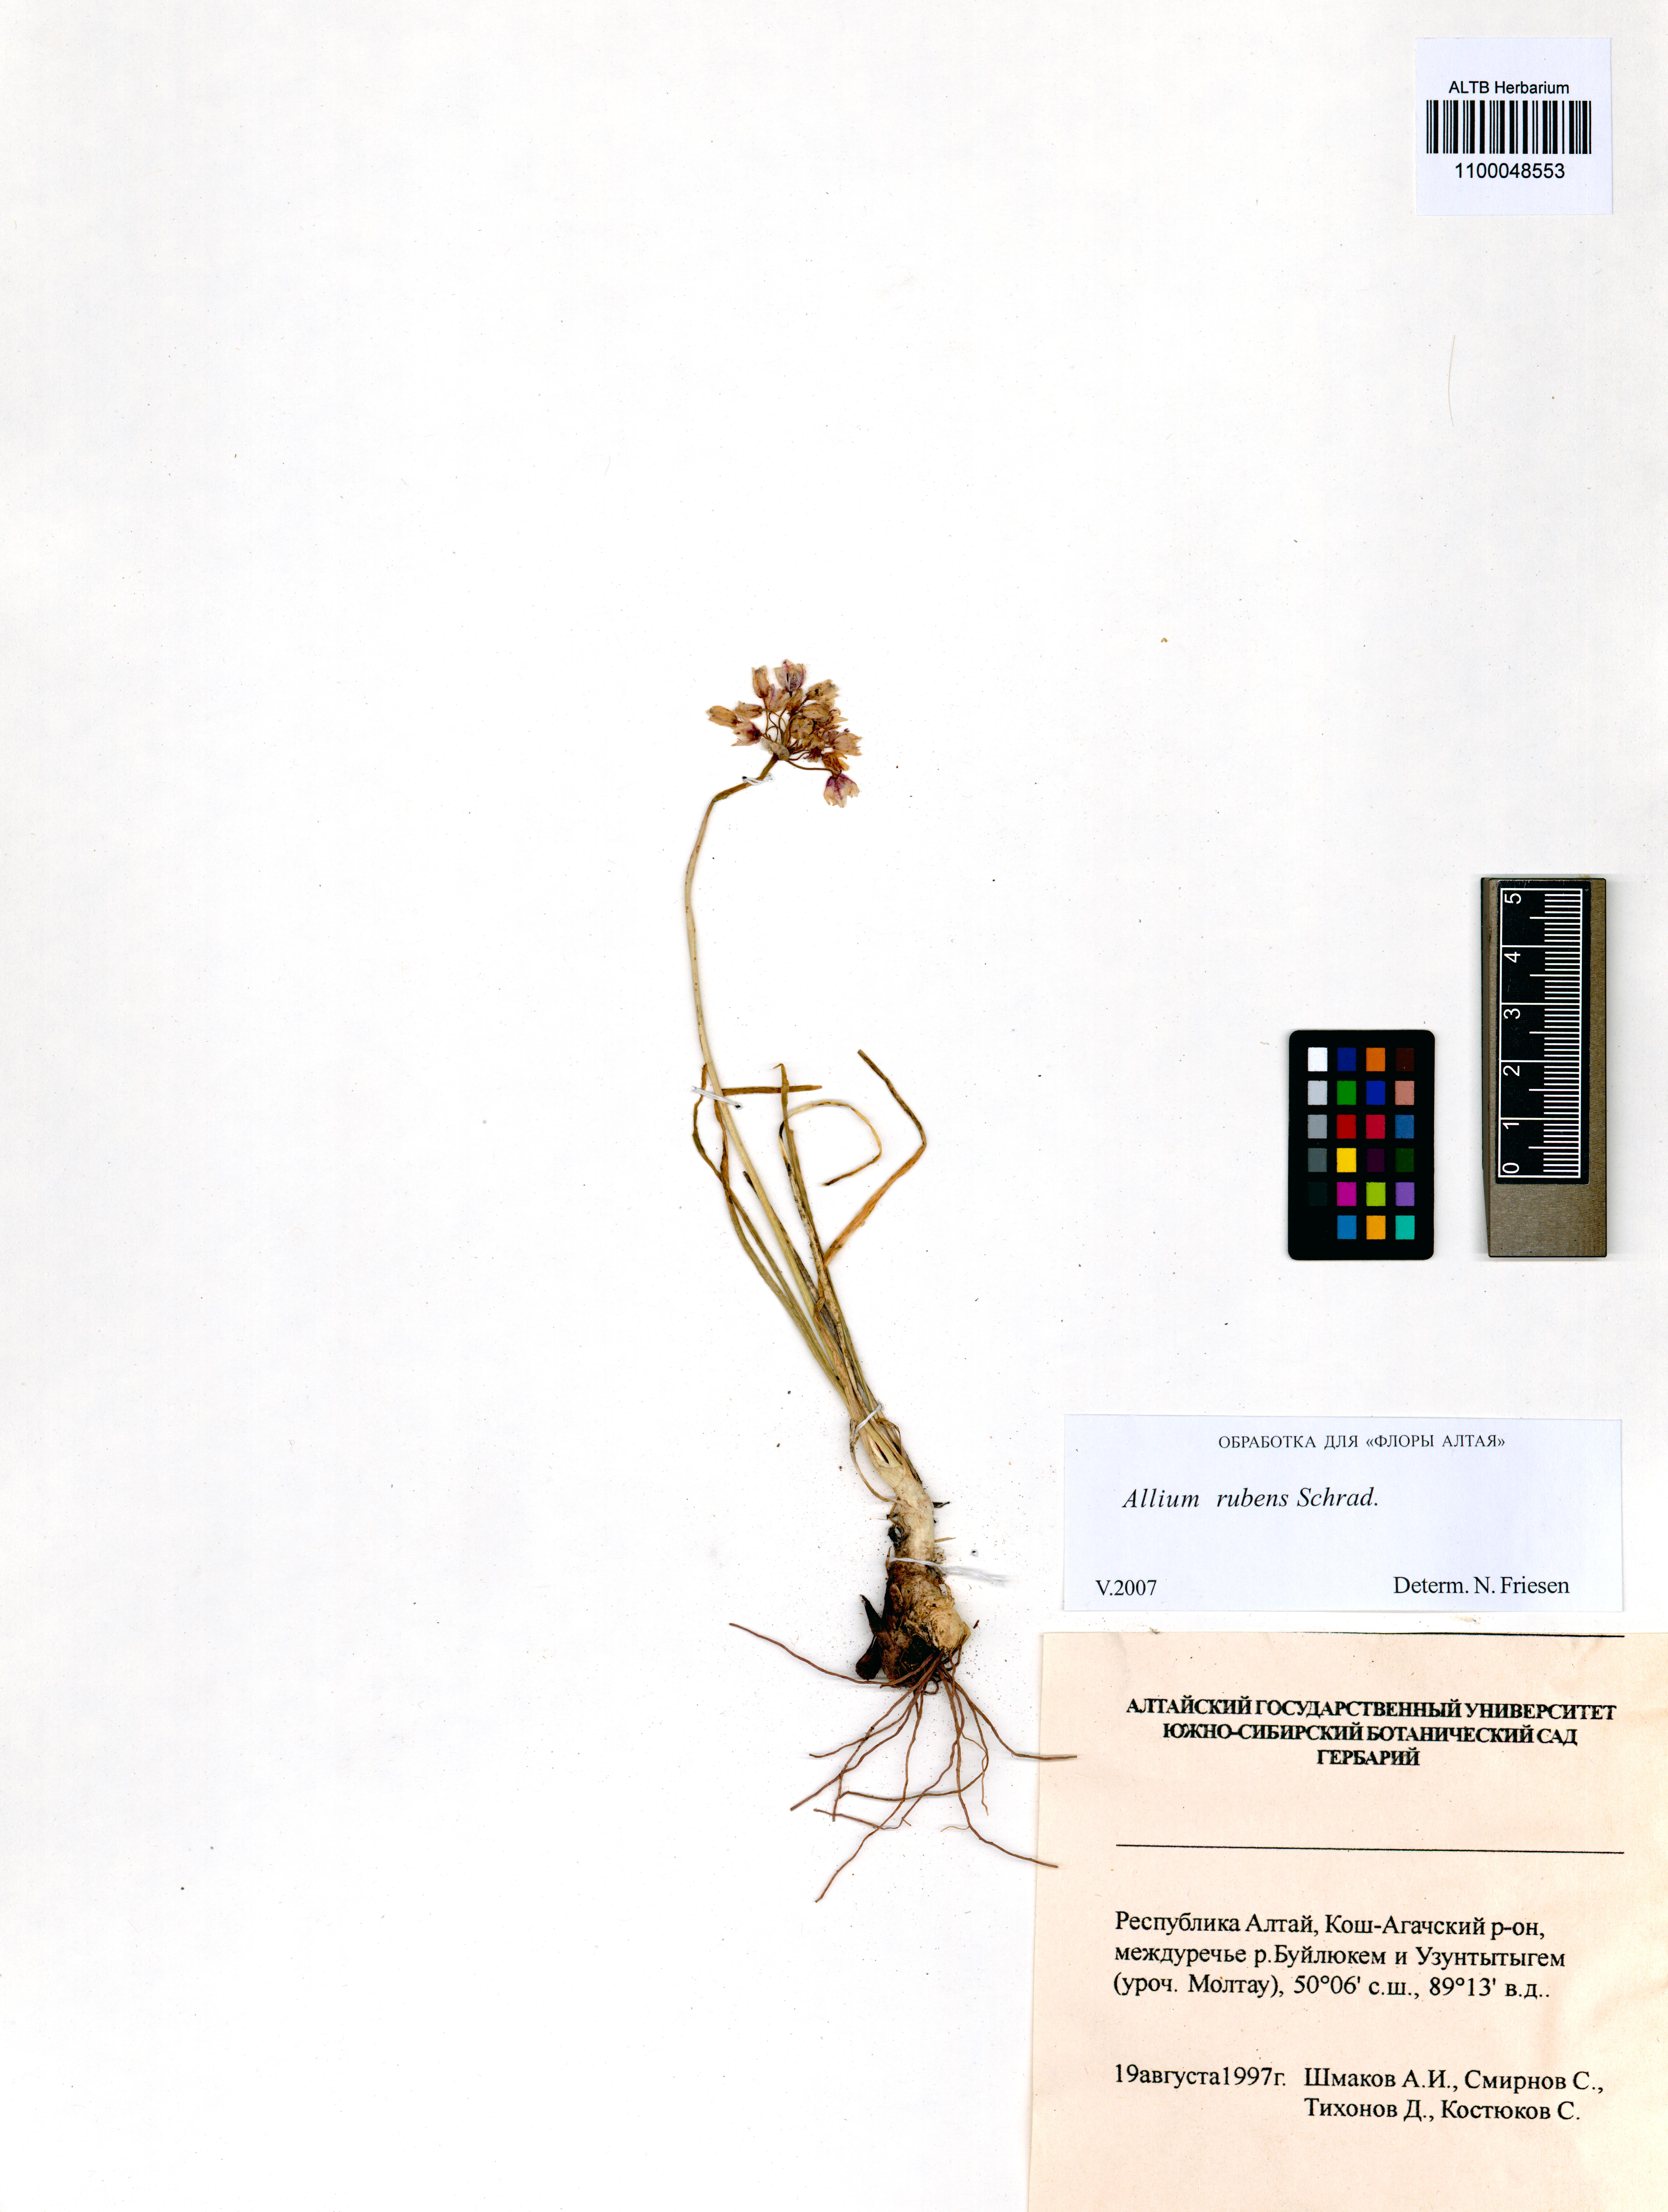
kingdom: Plantae
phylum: Tracheophyta
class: Liliopsida
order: Asparagales
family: Amaryllidaceae
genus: Allium
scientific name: Allium rubens
